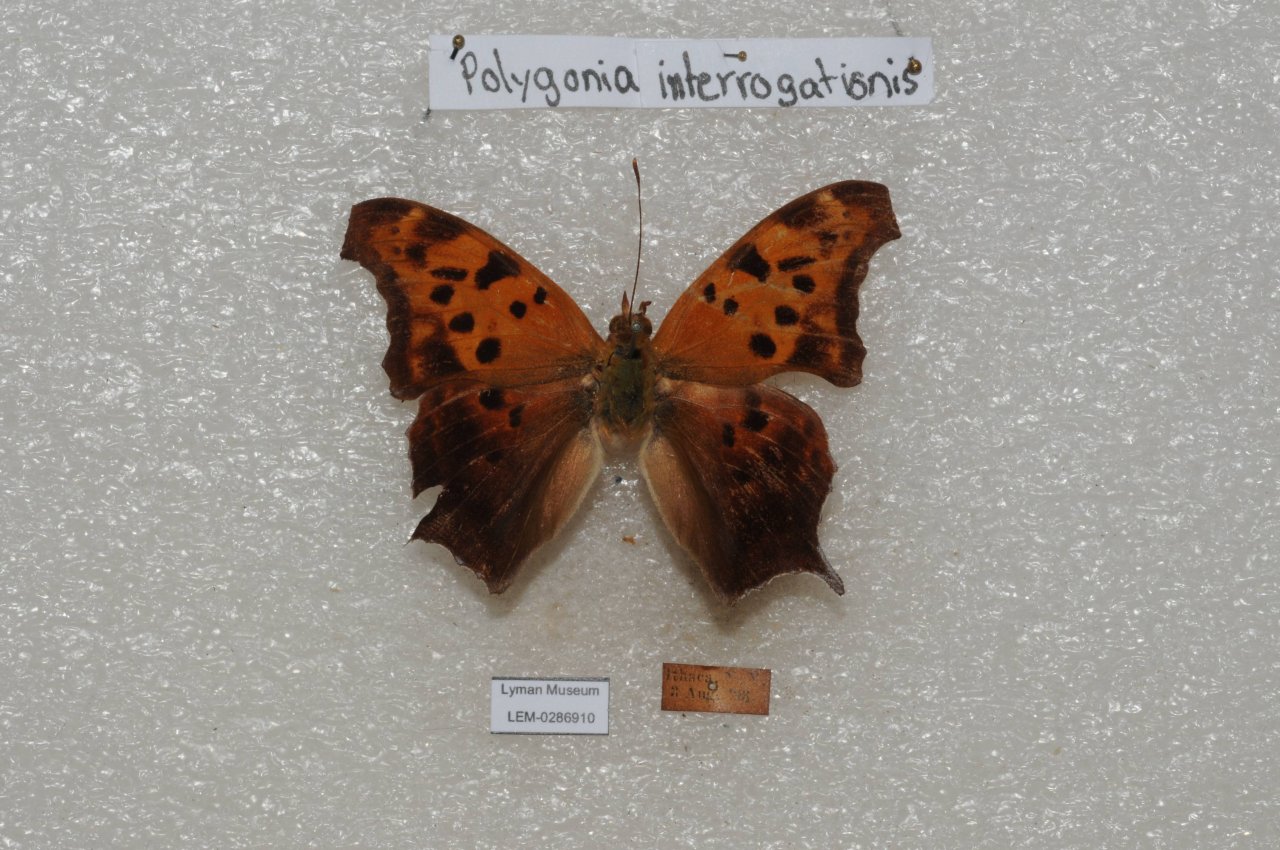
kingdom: Animalia
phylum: Arthropoda
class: Insecta
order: Lepidoptera
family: Nymphalidae
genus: Polygonia
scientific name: Polygonia interrogationis
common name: Question Mark
